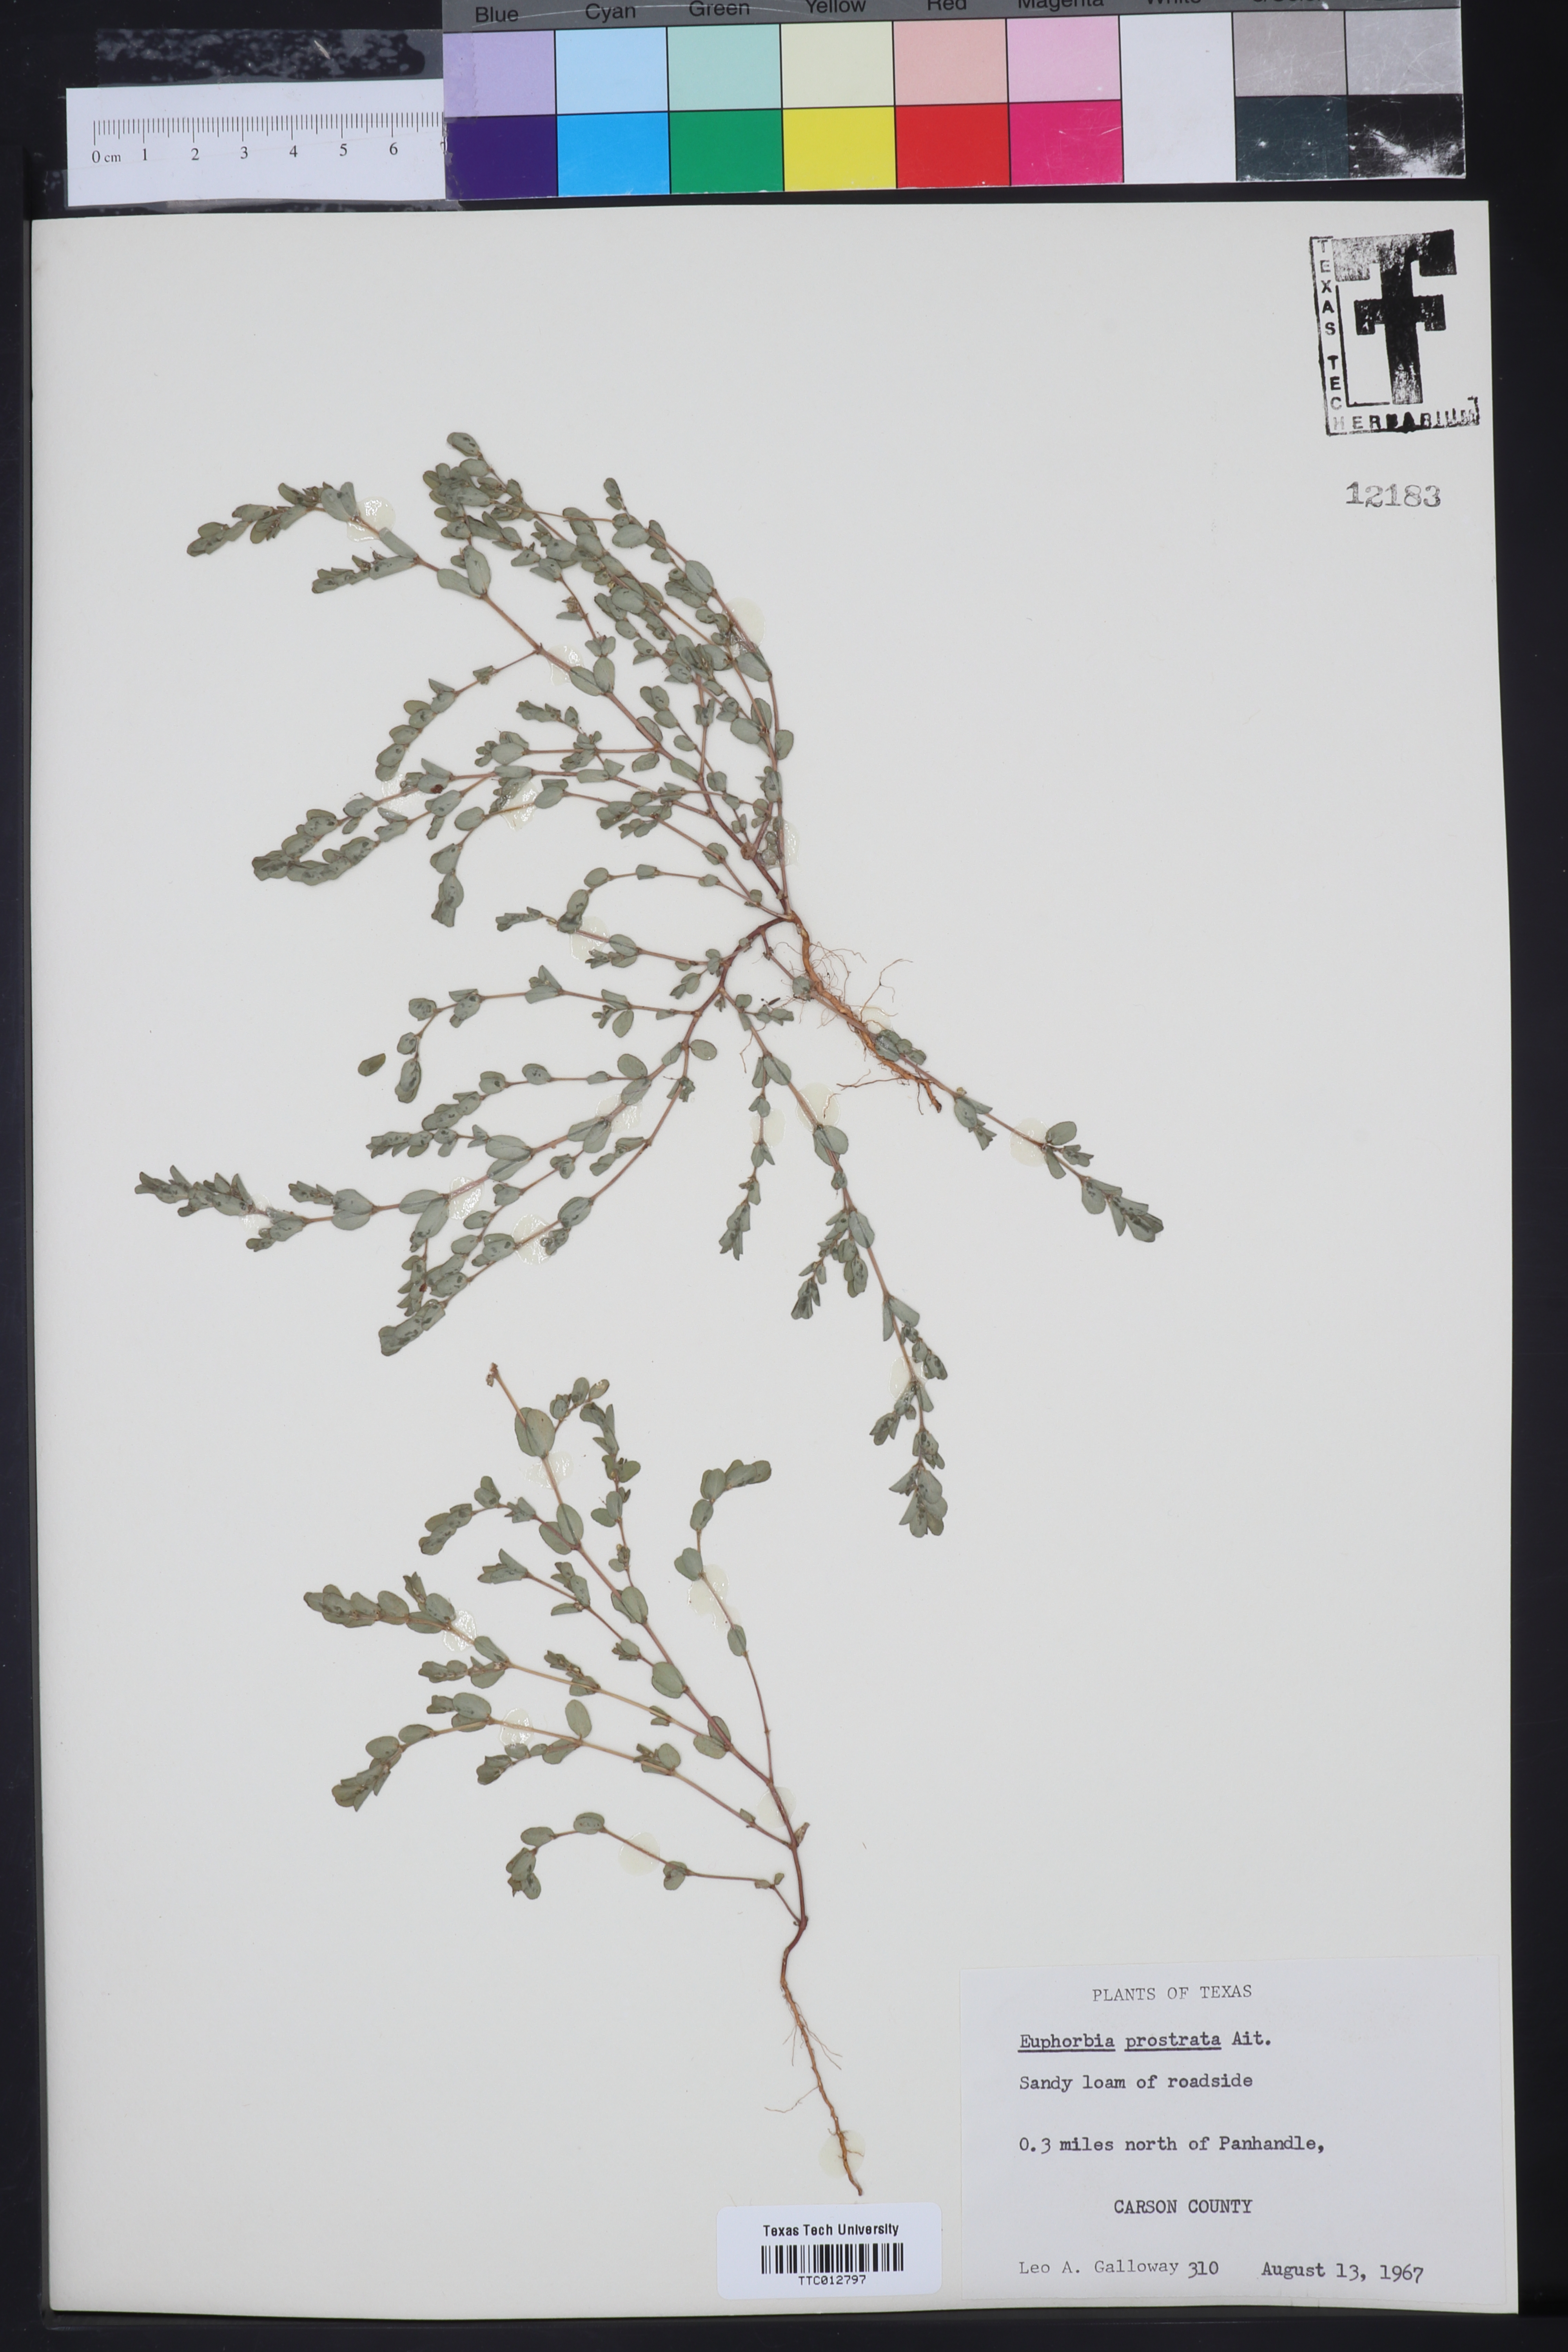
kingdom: Plantae
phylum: Tracheophyta
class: Magnoliopsida
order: Malpighiales
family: Euphorbiaceae
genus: Euphorbia
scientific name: Euphorbia prostrata
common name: Prostrate sandmat
